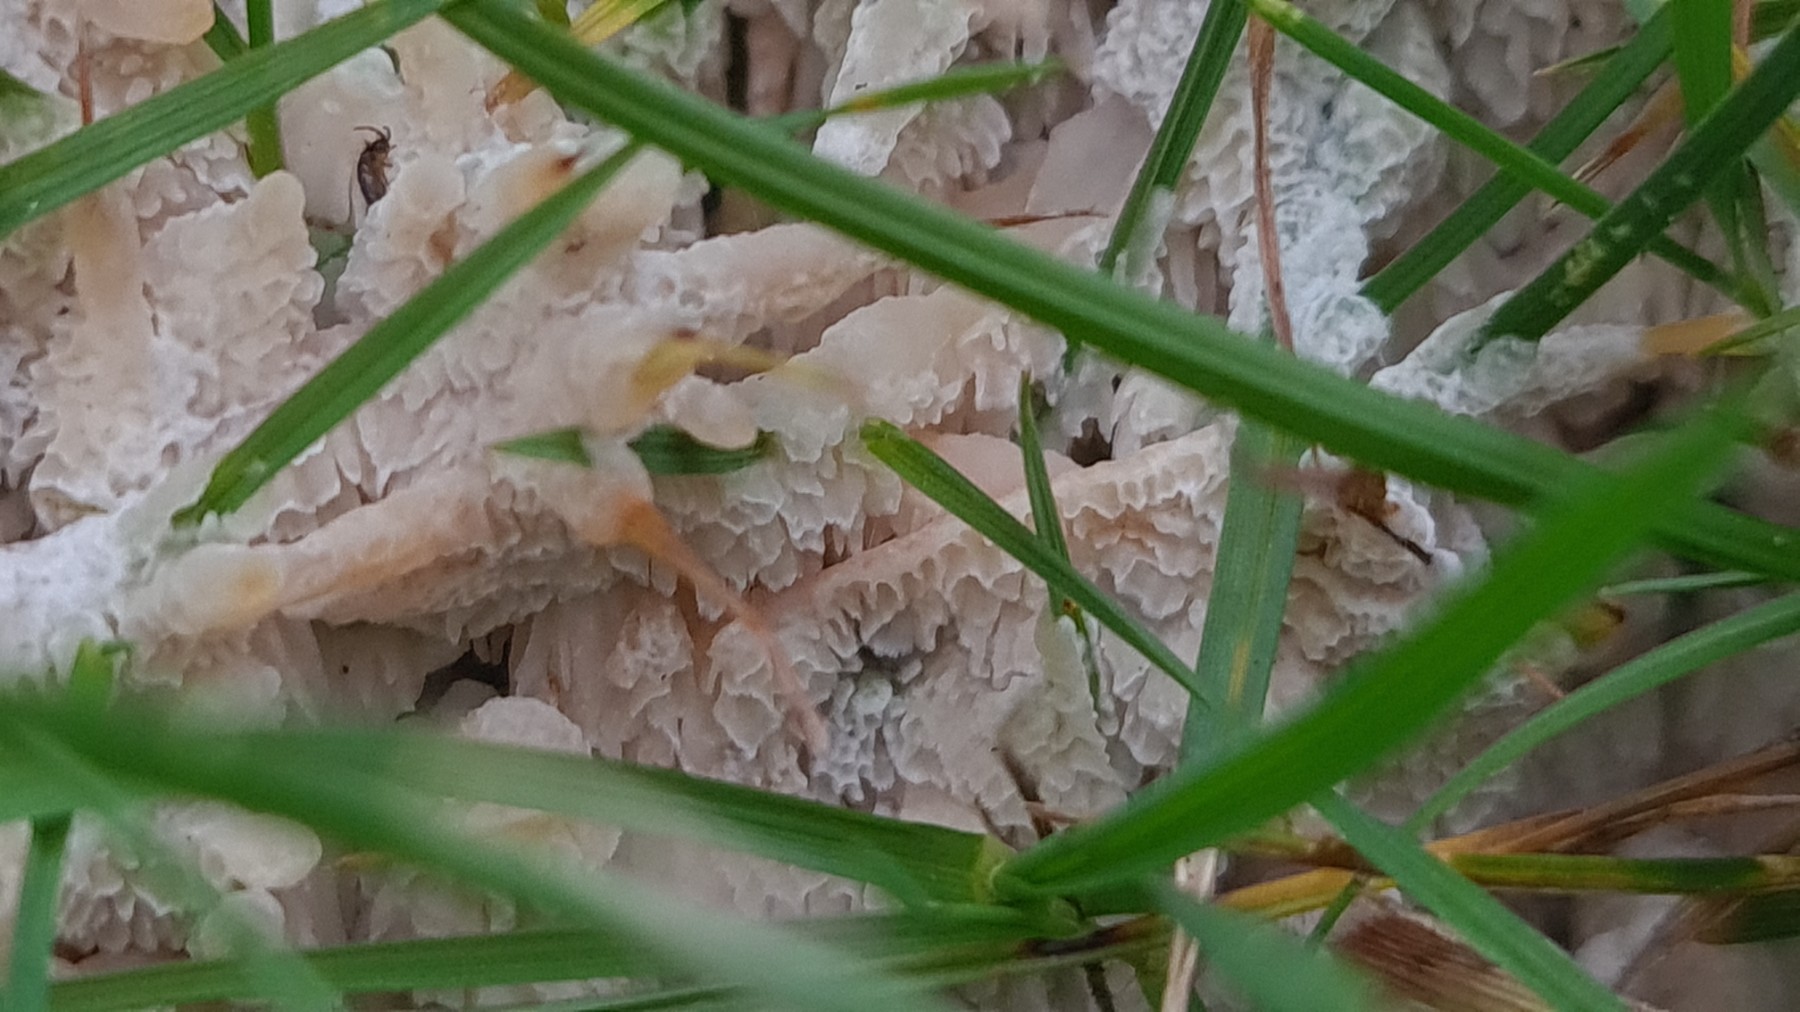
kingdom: Fungi
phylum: Basidiomycota
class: Agaricomycetes
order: Polyporales
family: Podoscyphaceae
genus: Abortiporus
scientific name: Abortiporus biennis
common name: rødmende pjalteporesvamp
